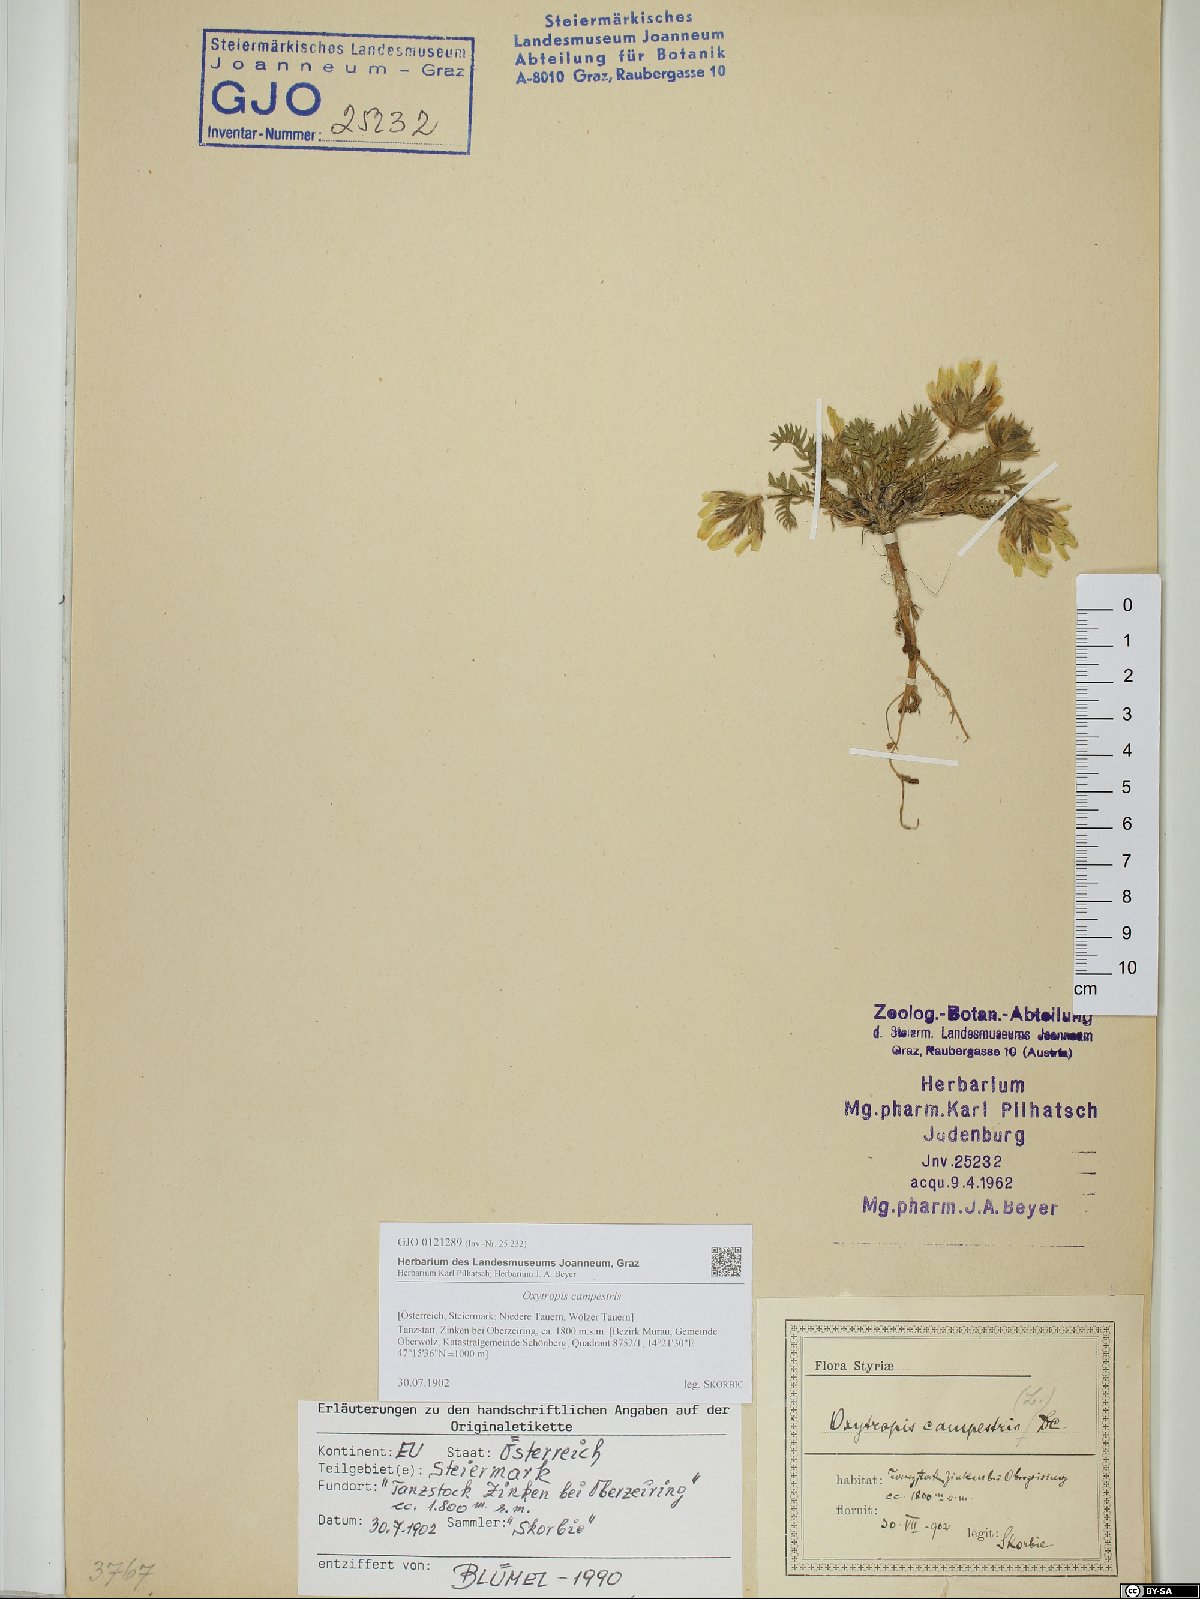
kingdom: Plantae
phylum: Tracheophyta
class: Magnoliopsida
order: Fabales
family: Fabaceae
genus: Oxytropis
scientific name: Oxytropis campestris
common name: Field locoweed
